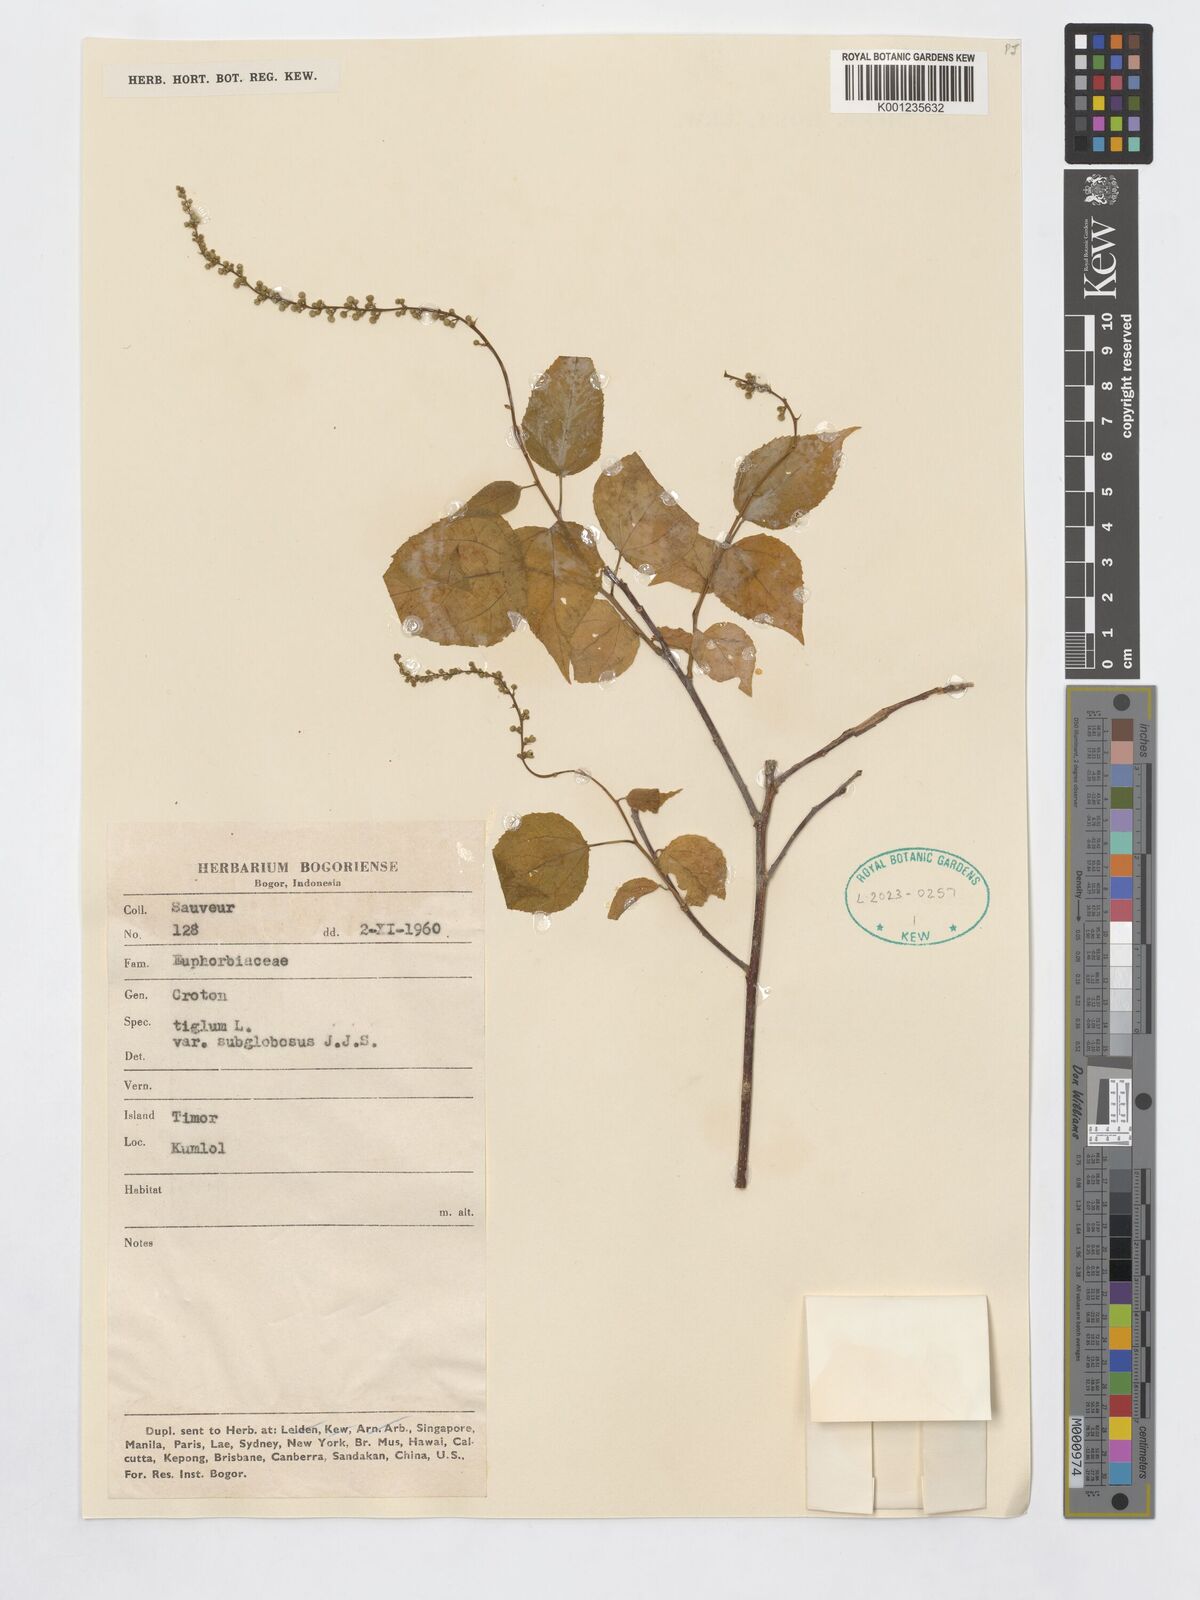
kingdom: Plantae
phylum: Tracheophyta
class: Magnoliopsida
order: Malpighiales
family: Euphorbiaceae
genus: Croton
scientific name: Croton tiglium
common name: Purging croton
